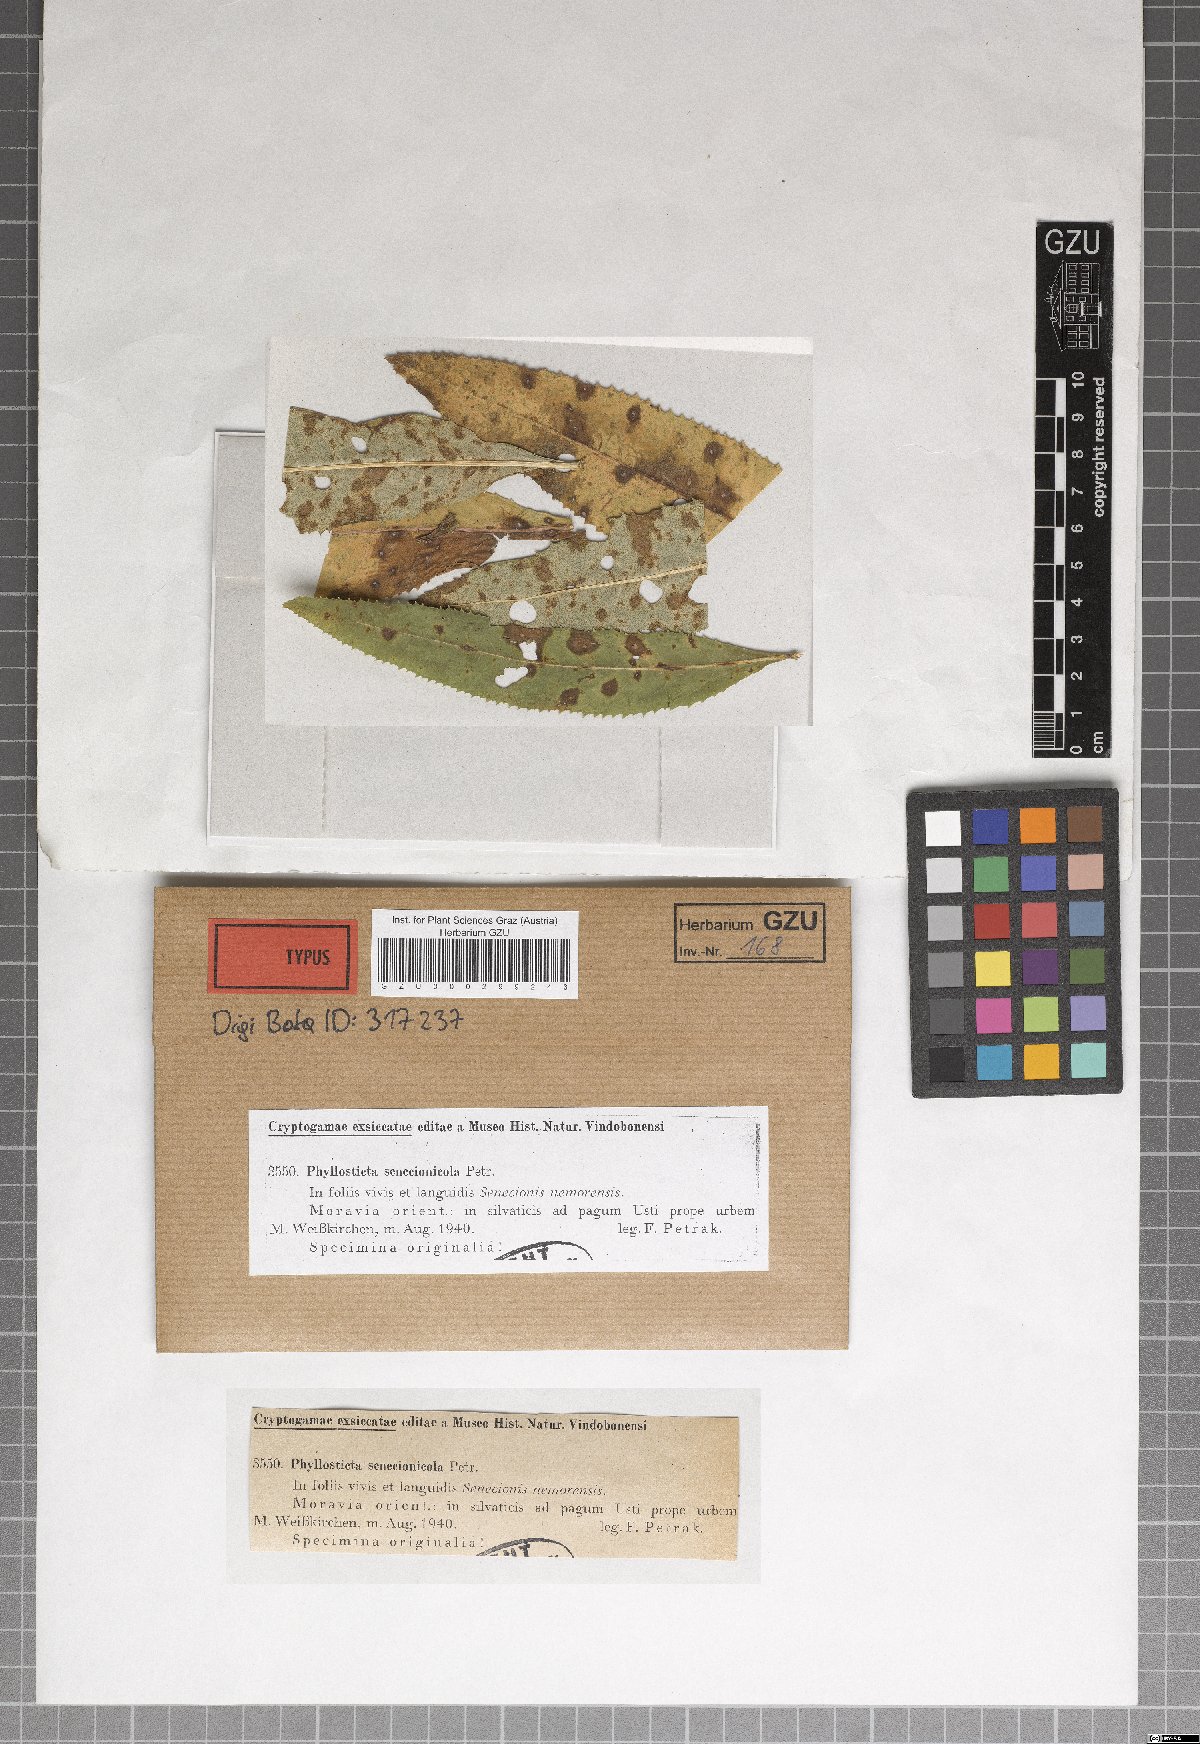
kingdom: Fungi
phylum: Ascomycota
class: Dothideomycetes
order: Botryosphaeriales
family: Phyllostictaceae
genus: Phyllosticta
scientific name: Phyllosticta senecionicola
